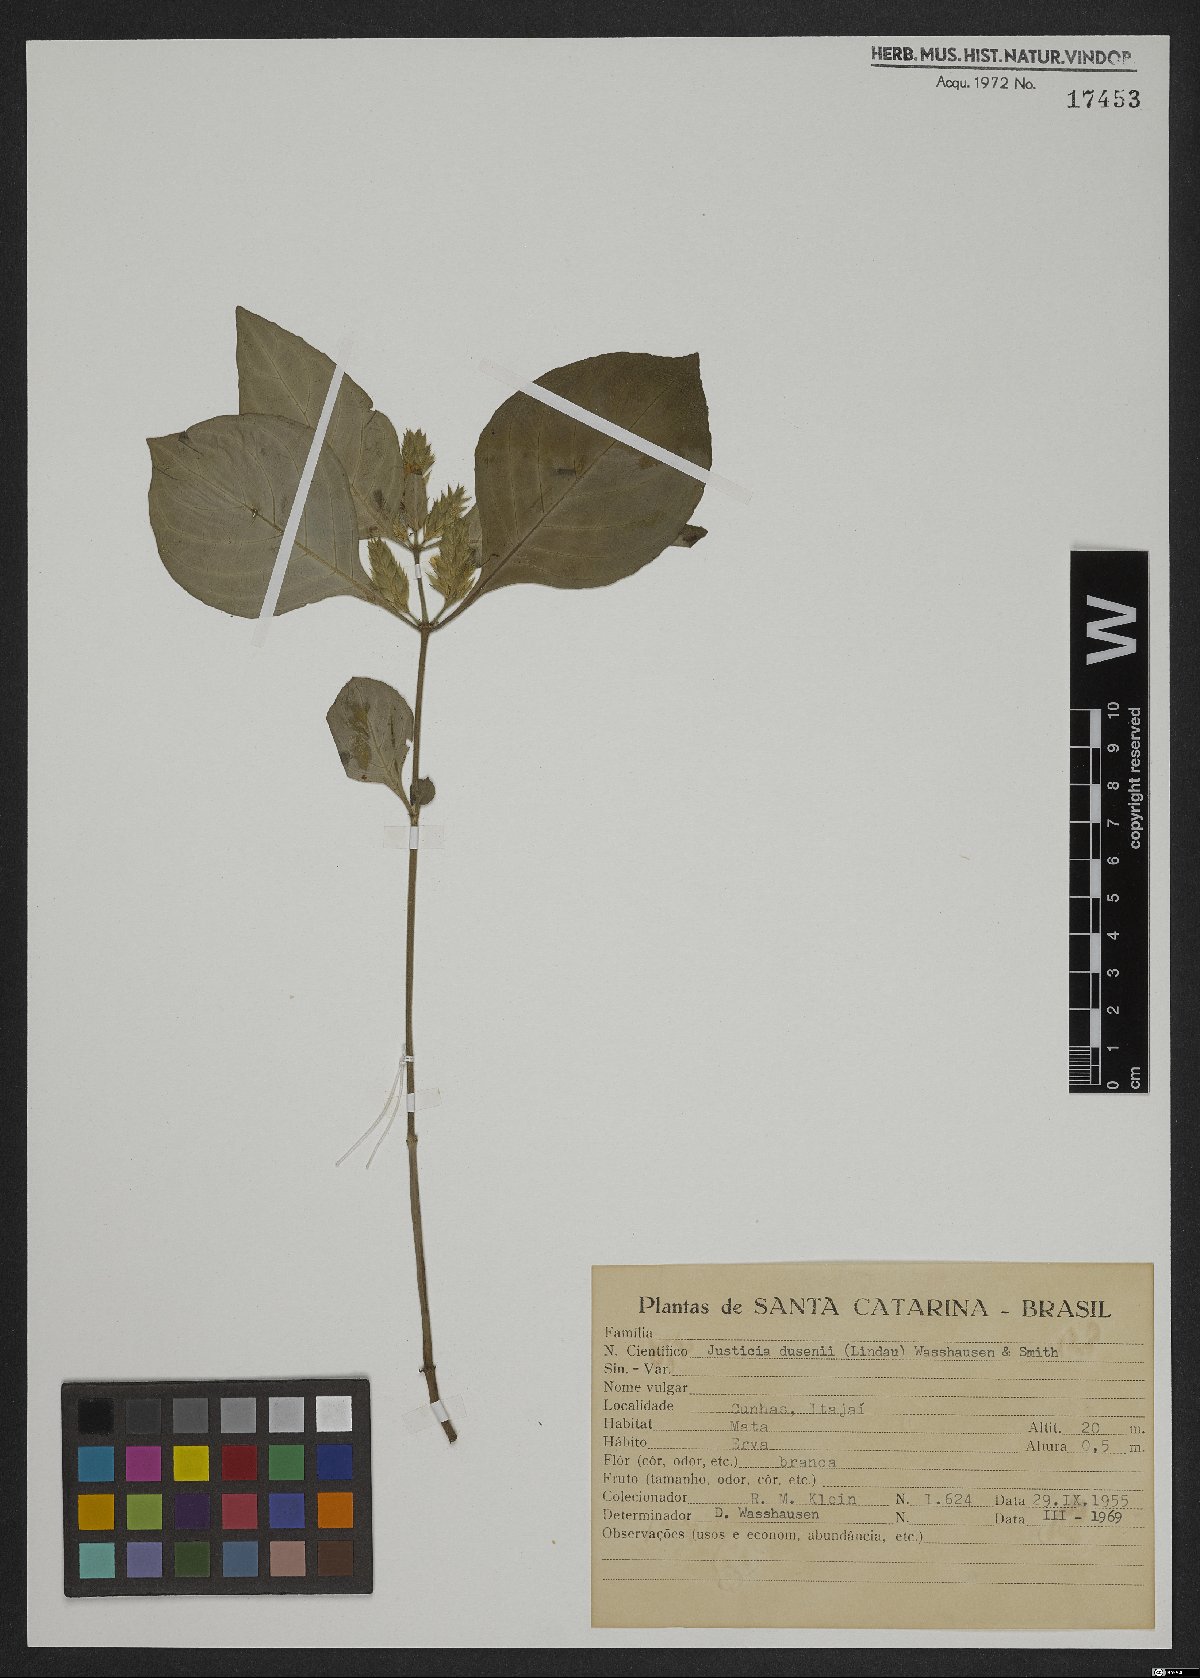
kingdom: Plantae
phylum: Tracheophyta
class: Magnoliopsida
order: Lamiales
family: Acanthaceae
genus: Justicia
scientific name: Justicia dusenii
